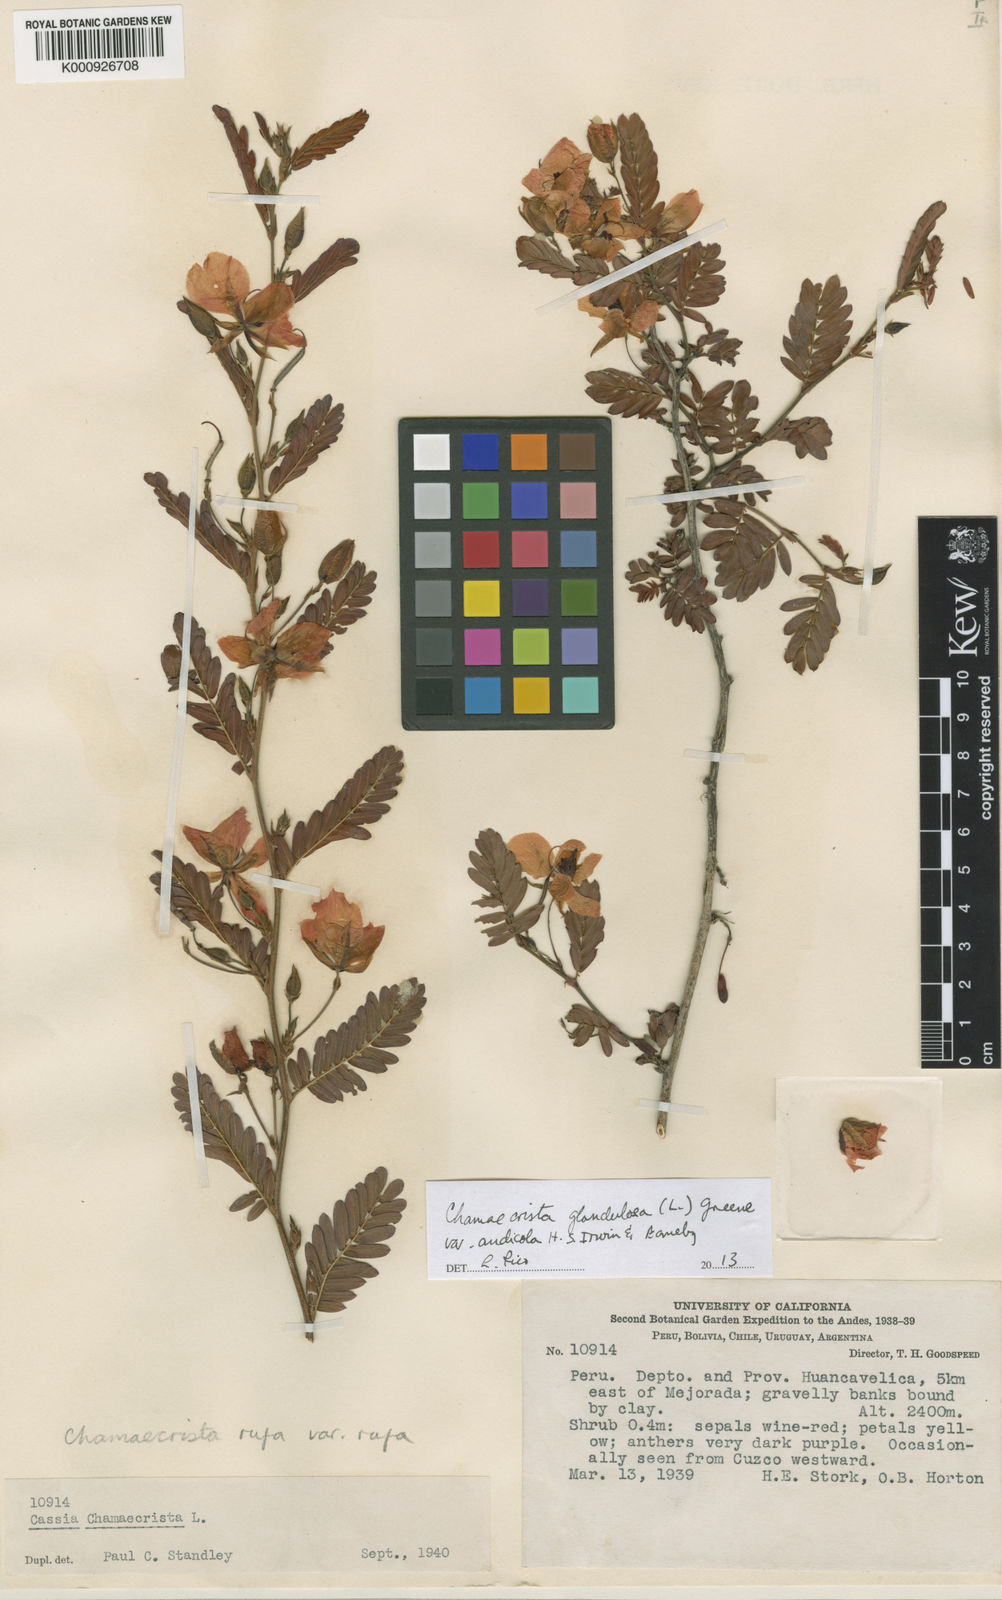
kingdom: Plantae
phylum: Tracheophyta
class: Magnoliopsida
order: Fabales
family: Fabaceae
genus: Chamaecrista
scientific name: Chamaecrista glandulosa
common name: Wild peas
